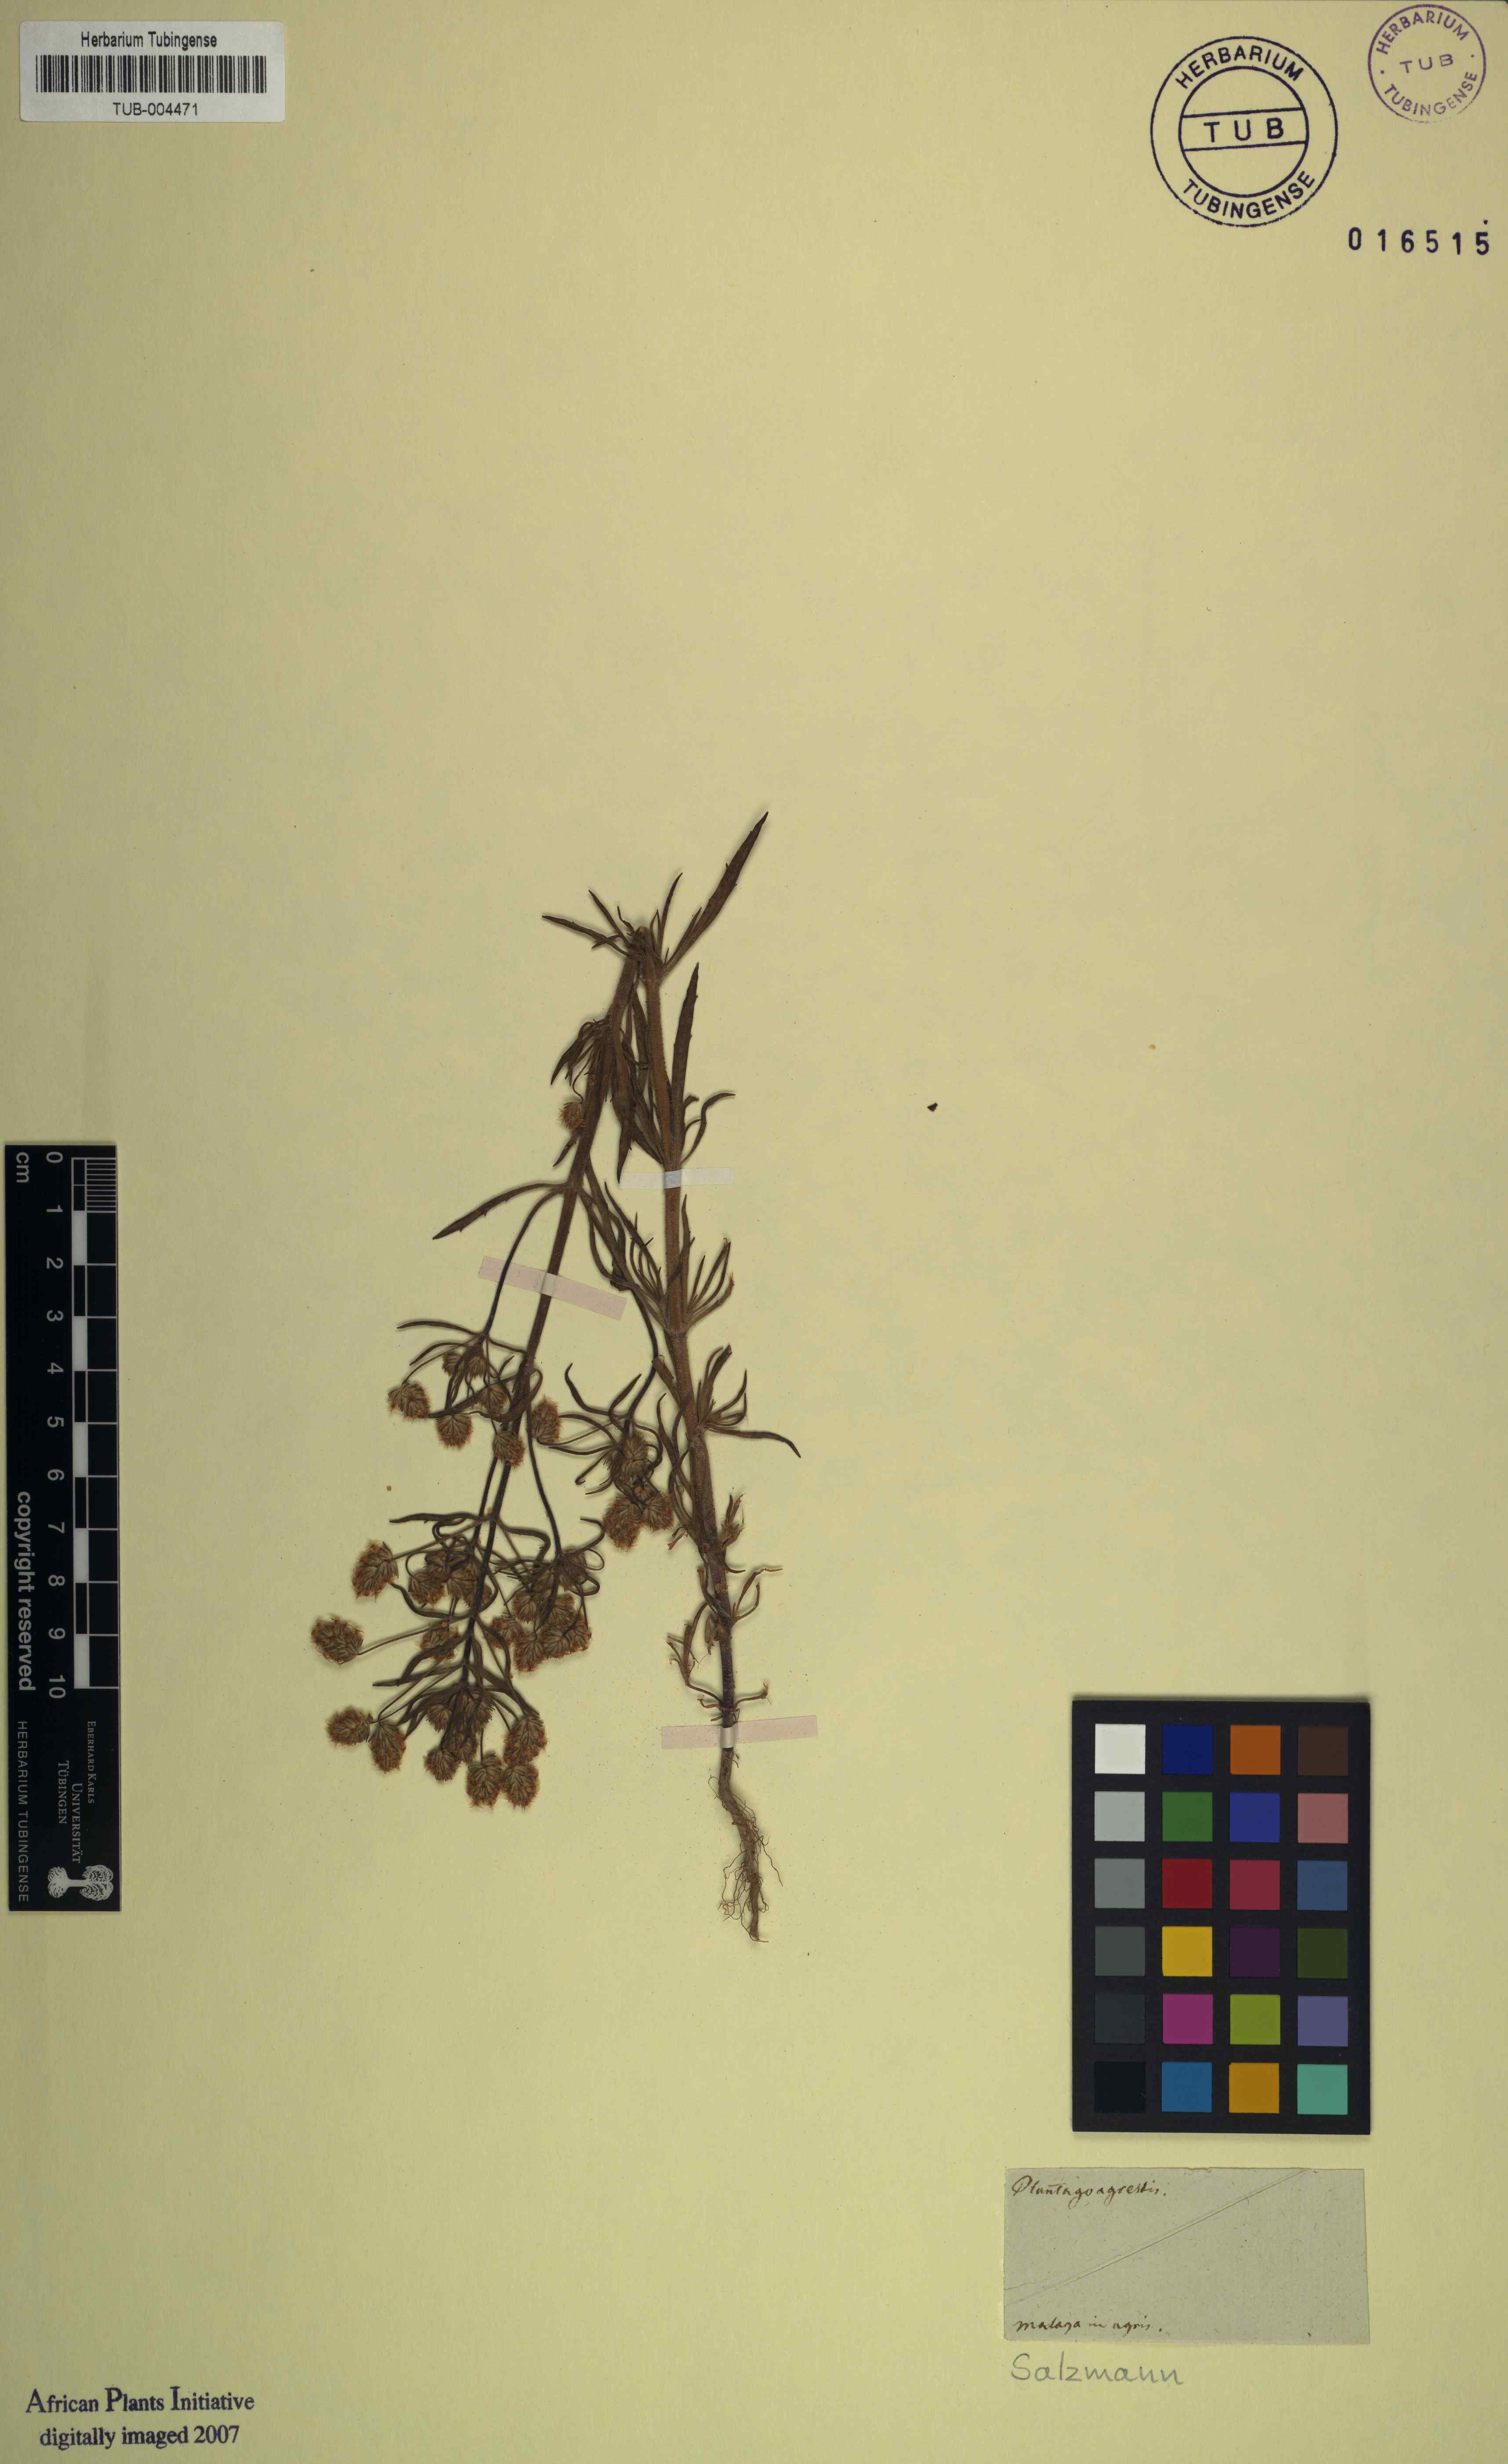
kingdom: Plantae
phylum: Tracheophyta
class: Magnoliopsida
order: Lamiales
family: Plantaginaceae
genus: Plantago
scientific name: Plantago
